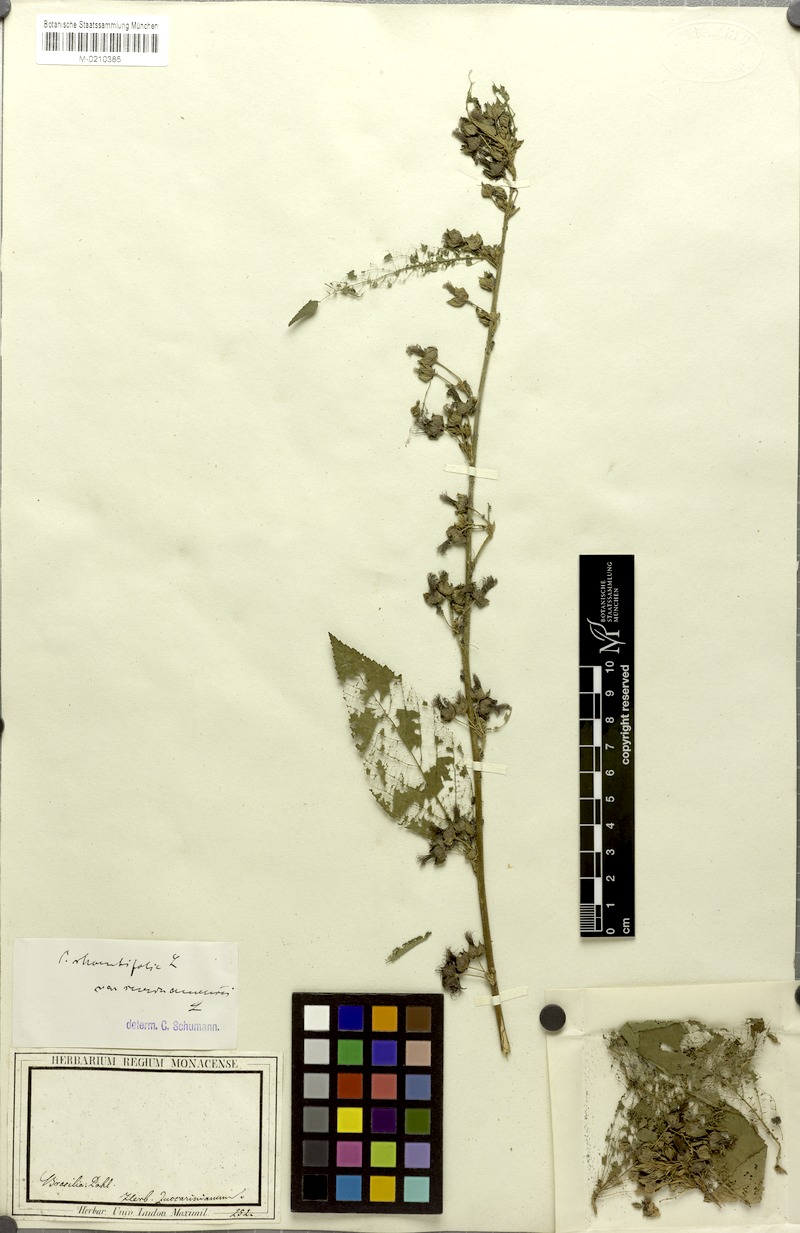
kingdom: Plantae
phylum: Tracheophyta
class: Magnoliopsida
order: Malvales
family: Malvaceae
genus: Sida
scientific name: Sida setosa
